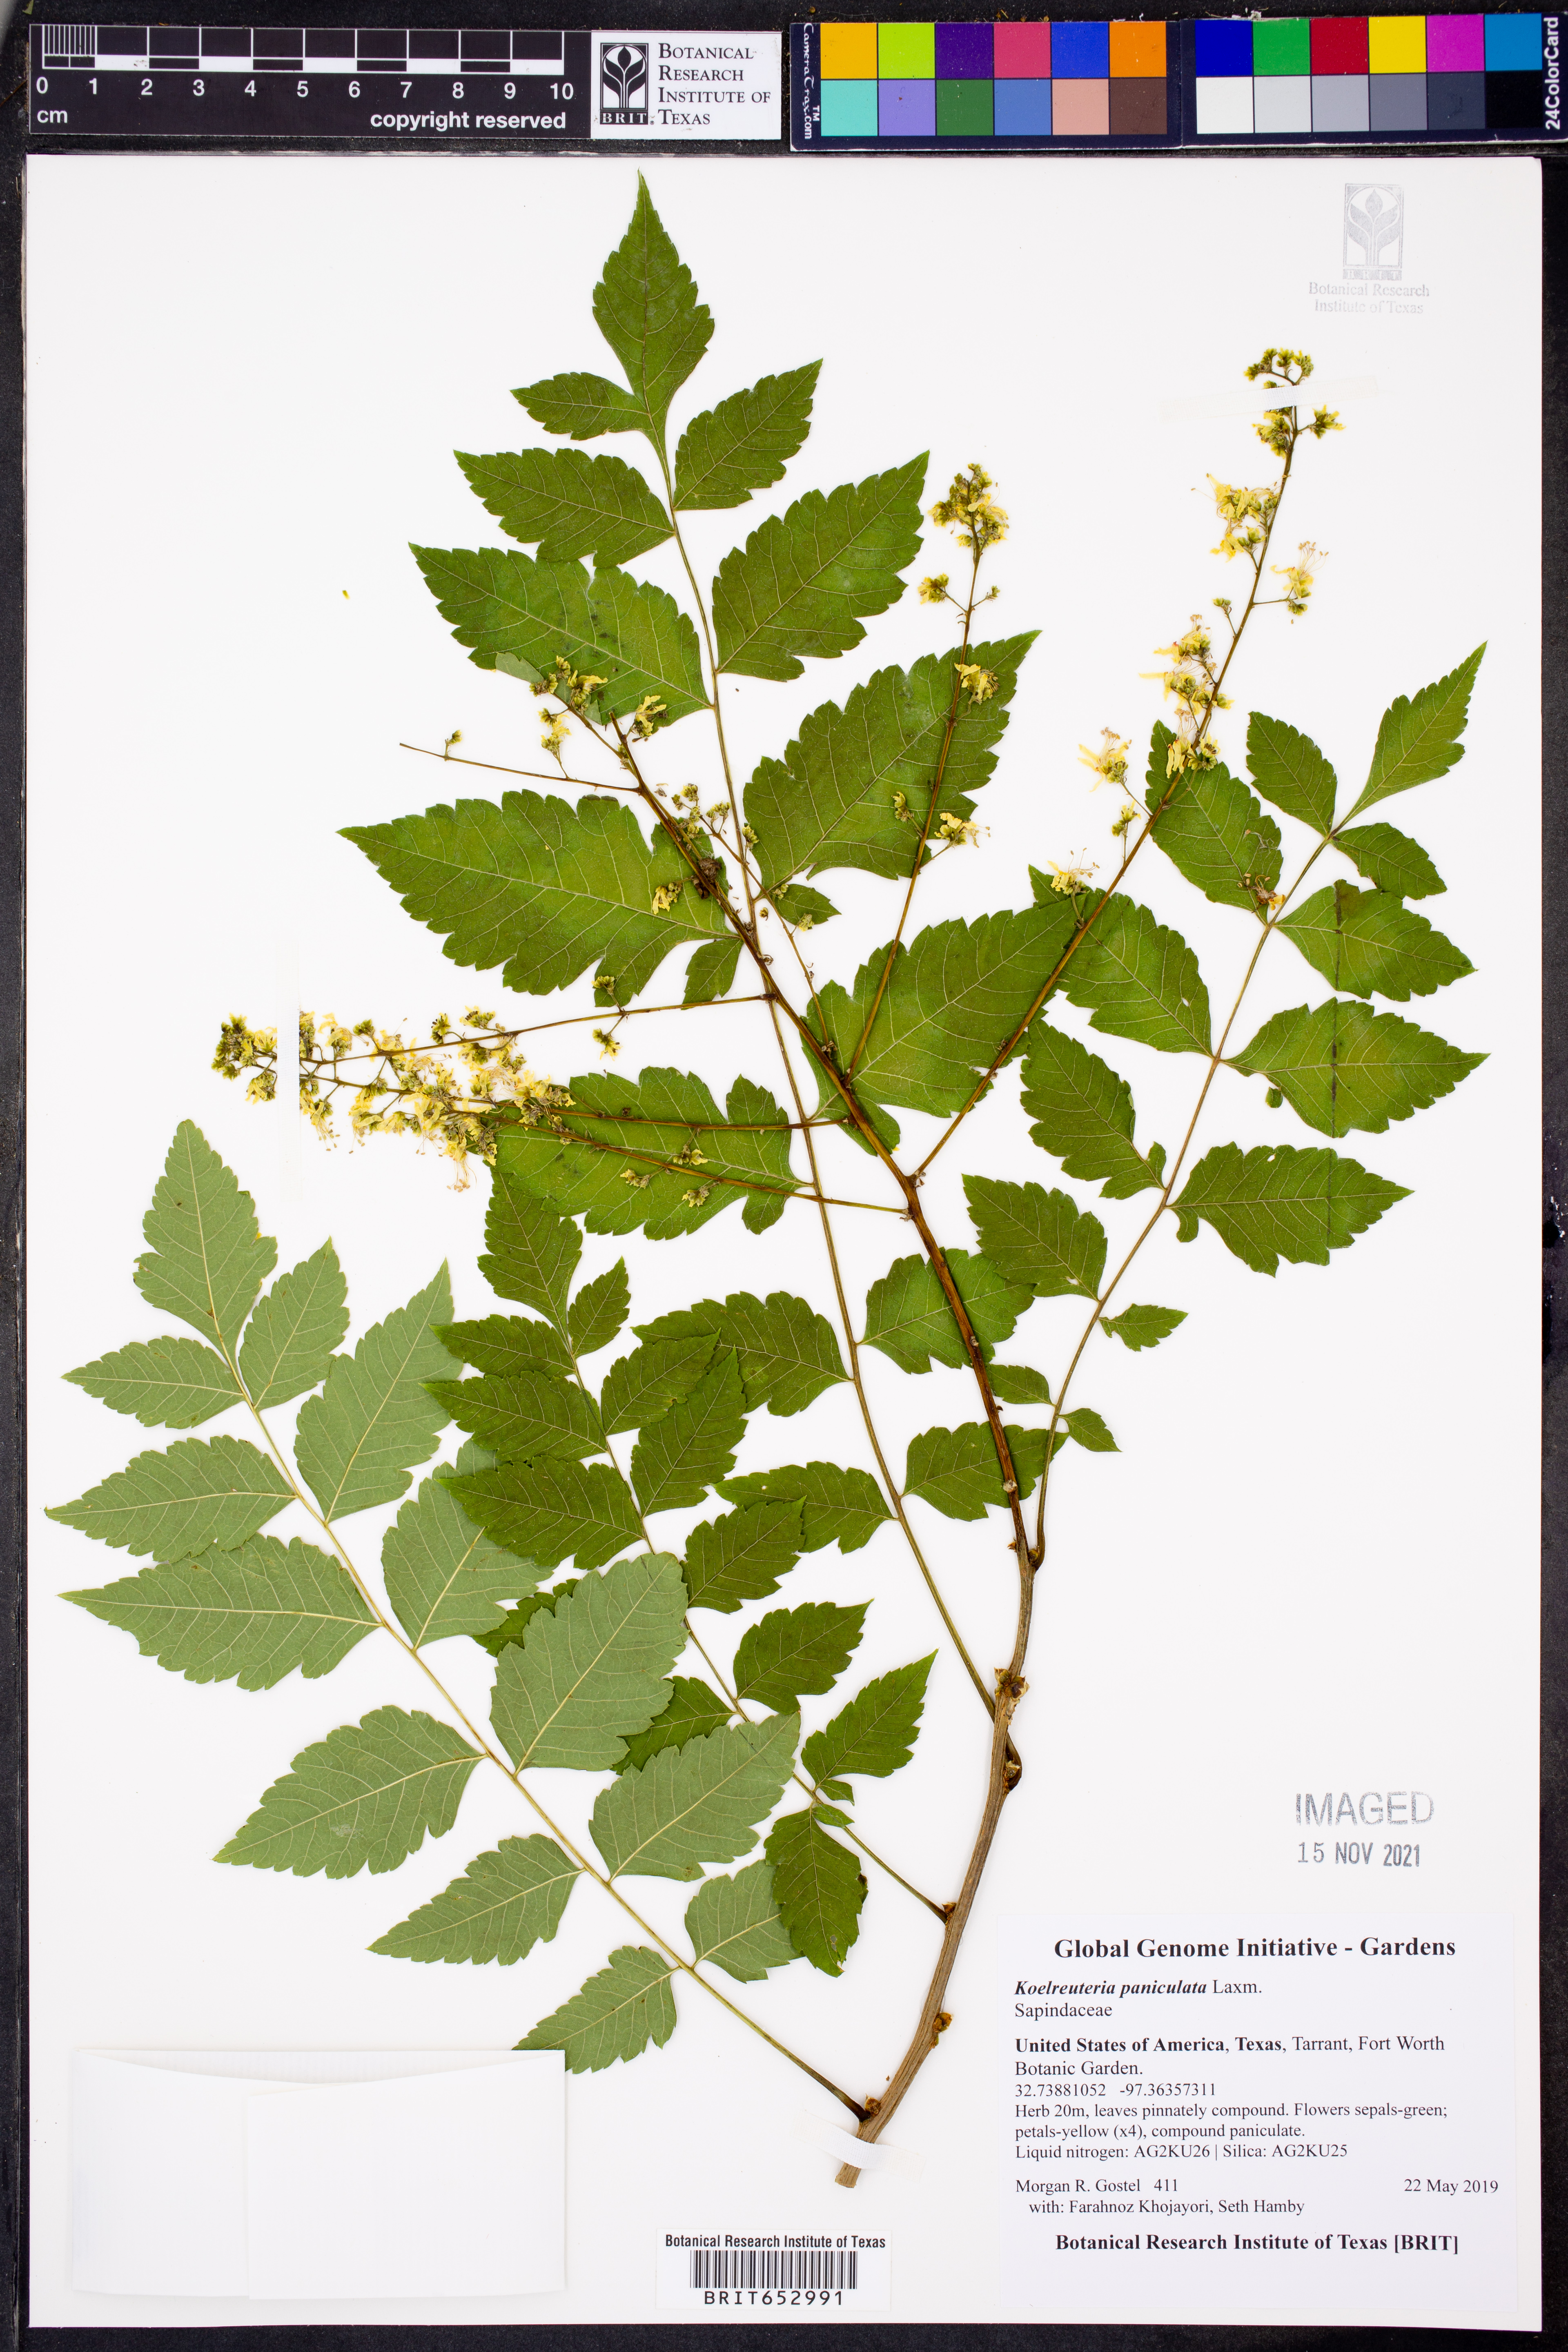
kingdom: Plantae
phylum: Tracheophyta
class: Magnoliopsida
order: Sapindales
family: Sapindaceae
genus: Koelreuteria
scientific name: Koelreuteria paniculata
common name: Pride-of-india
